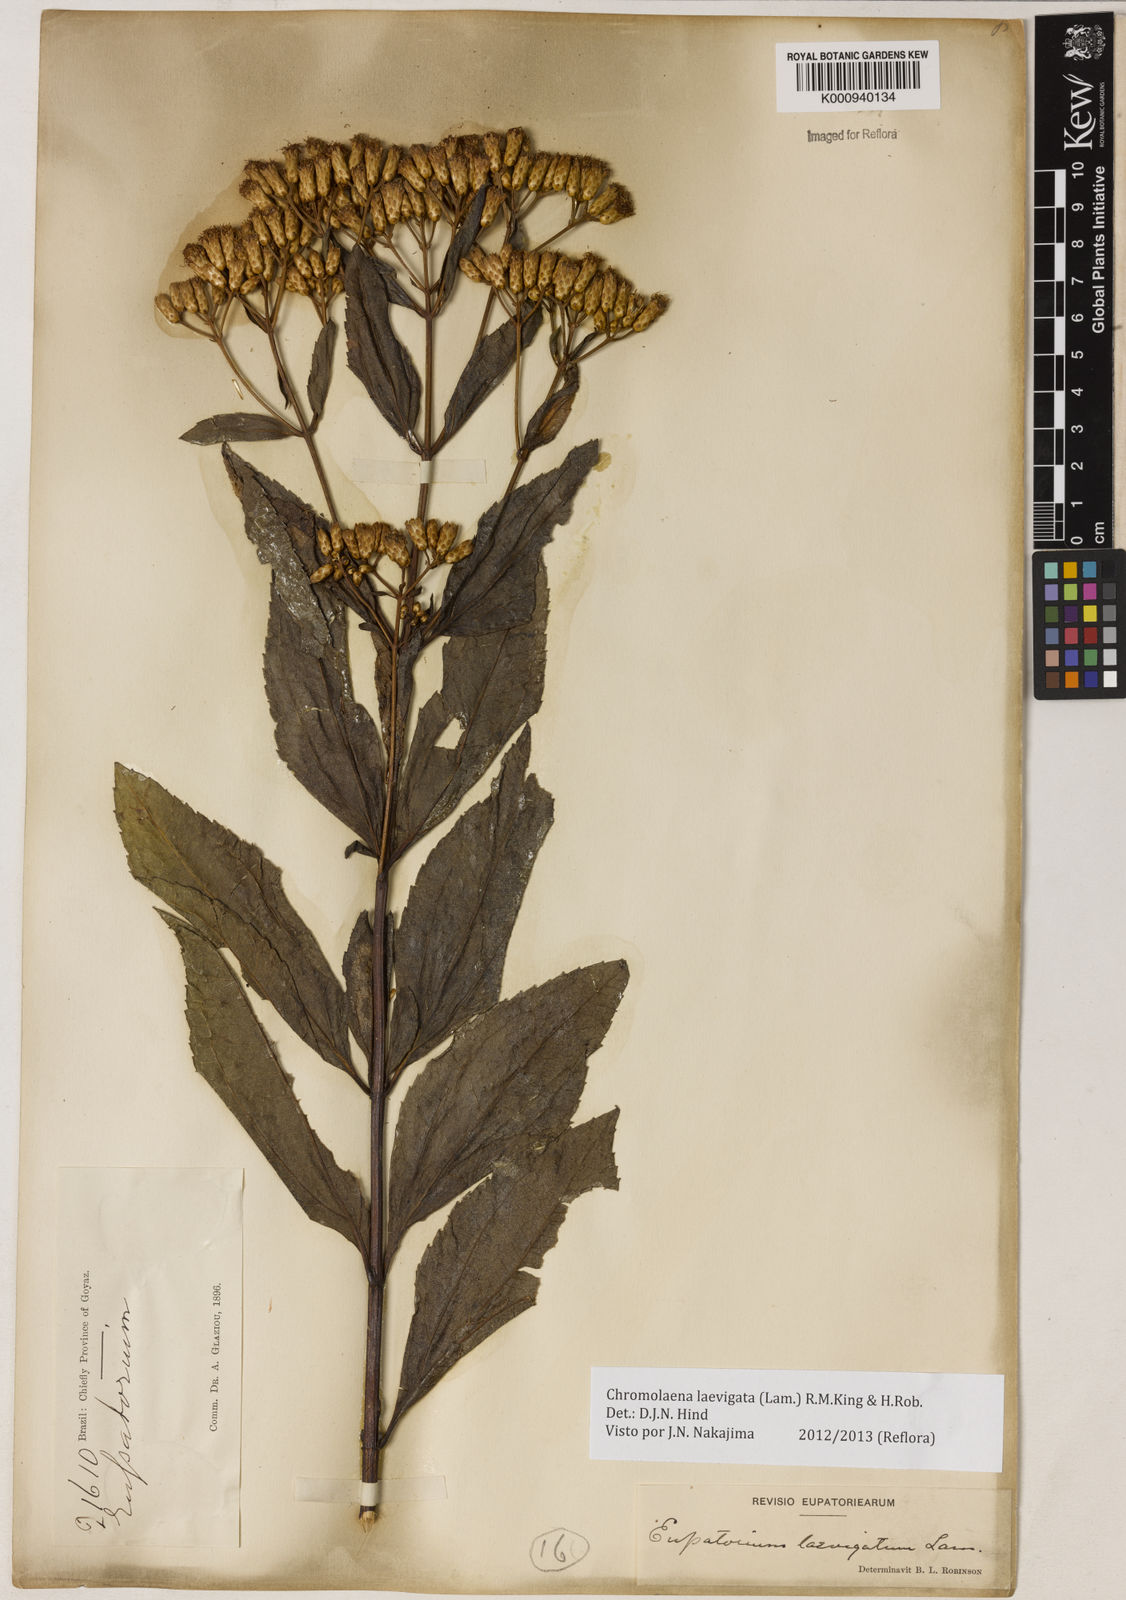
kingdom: Plantae
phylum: Tracheophyta
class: Magnoliopsida
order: Asterales
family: Asteraceae
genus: Chromolaena
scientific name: Chromolaena laevigata
